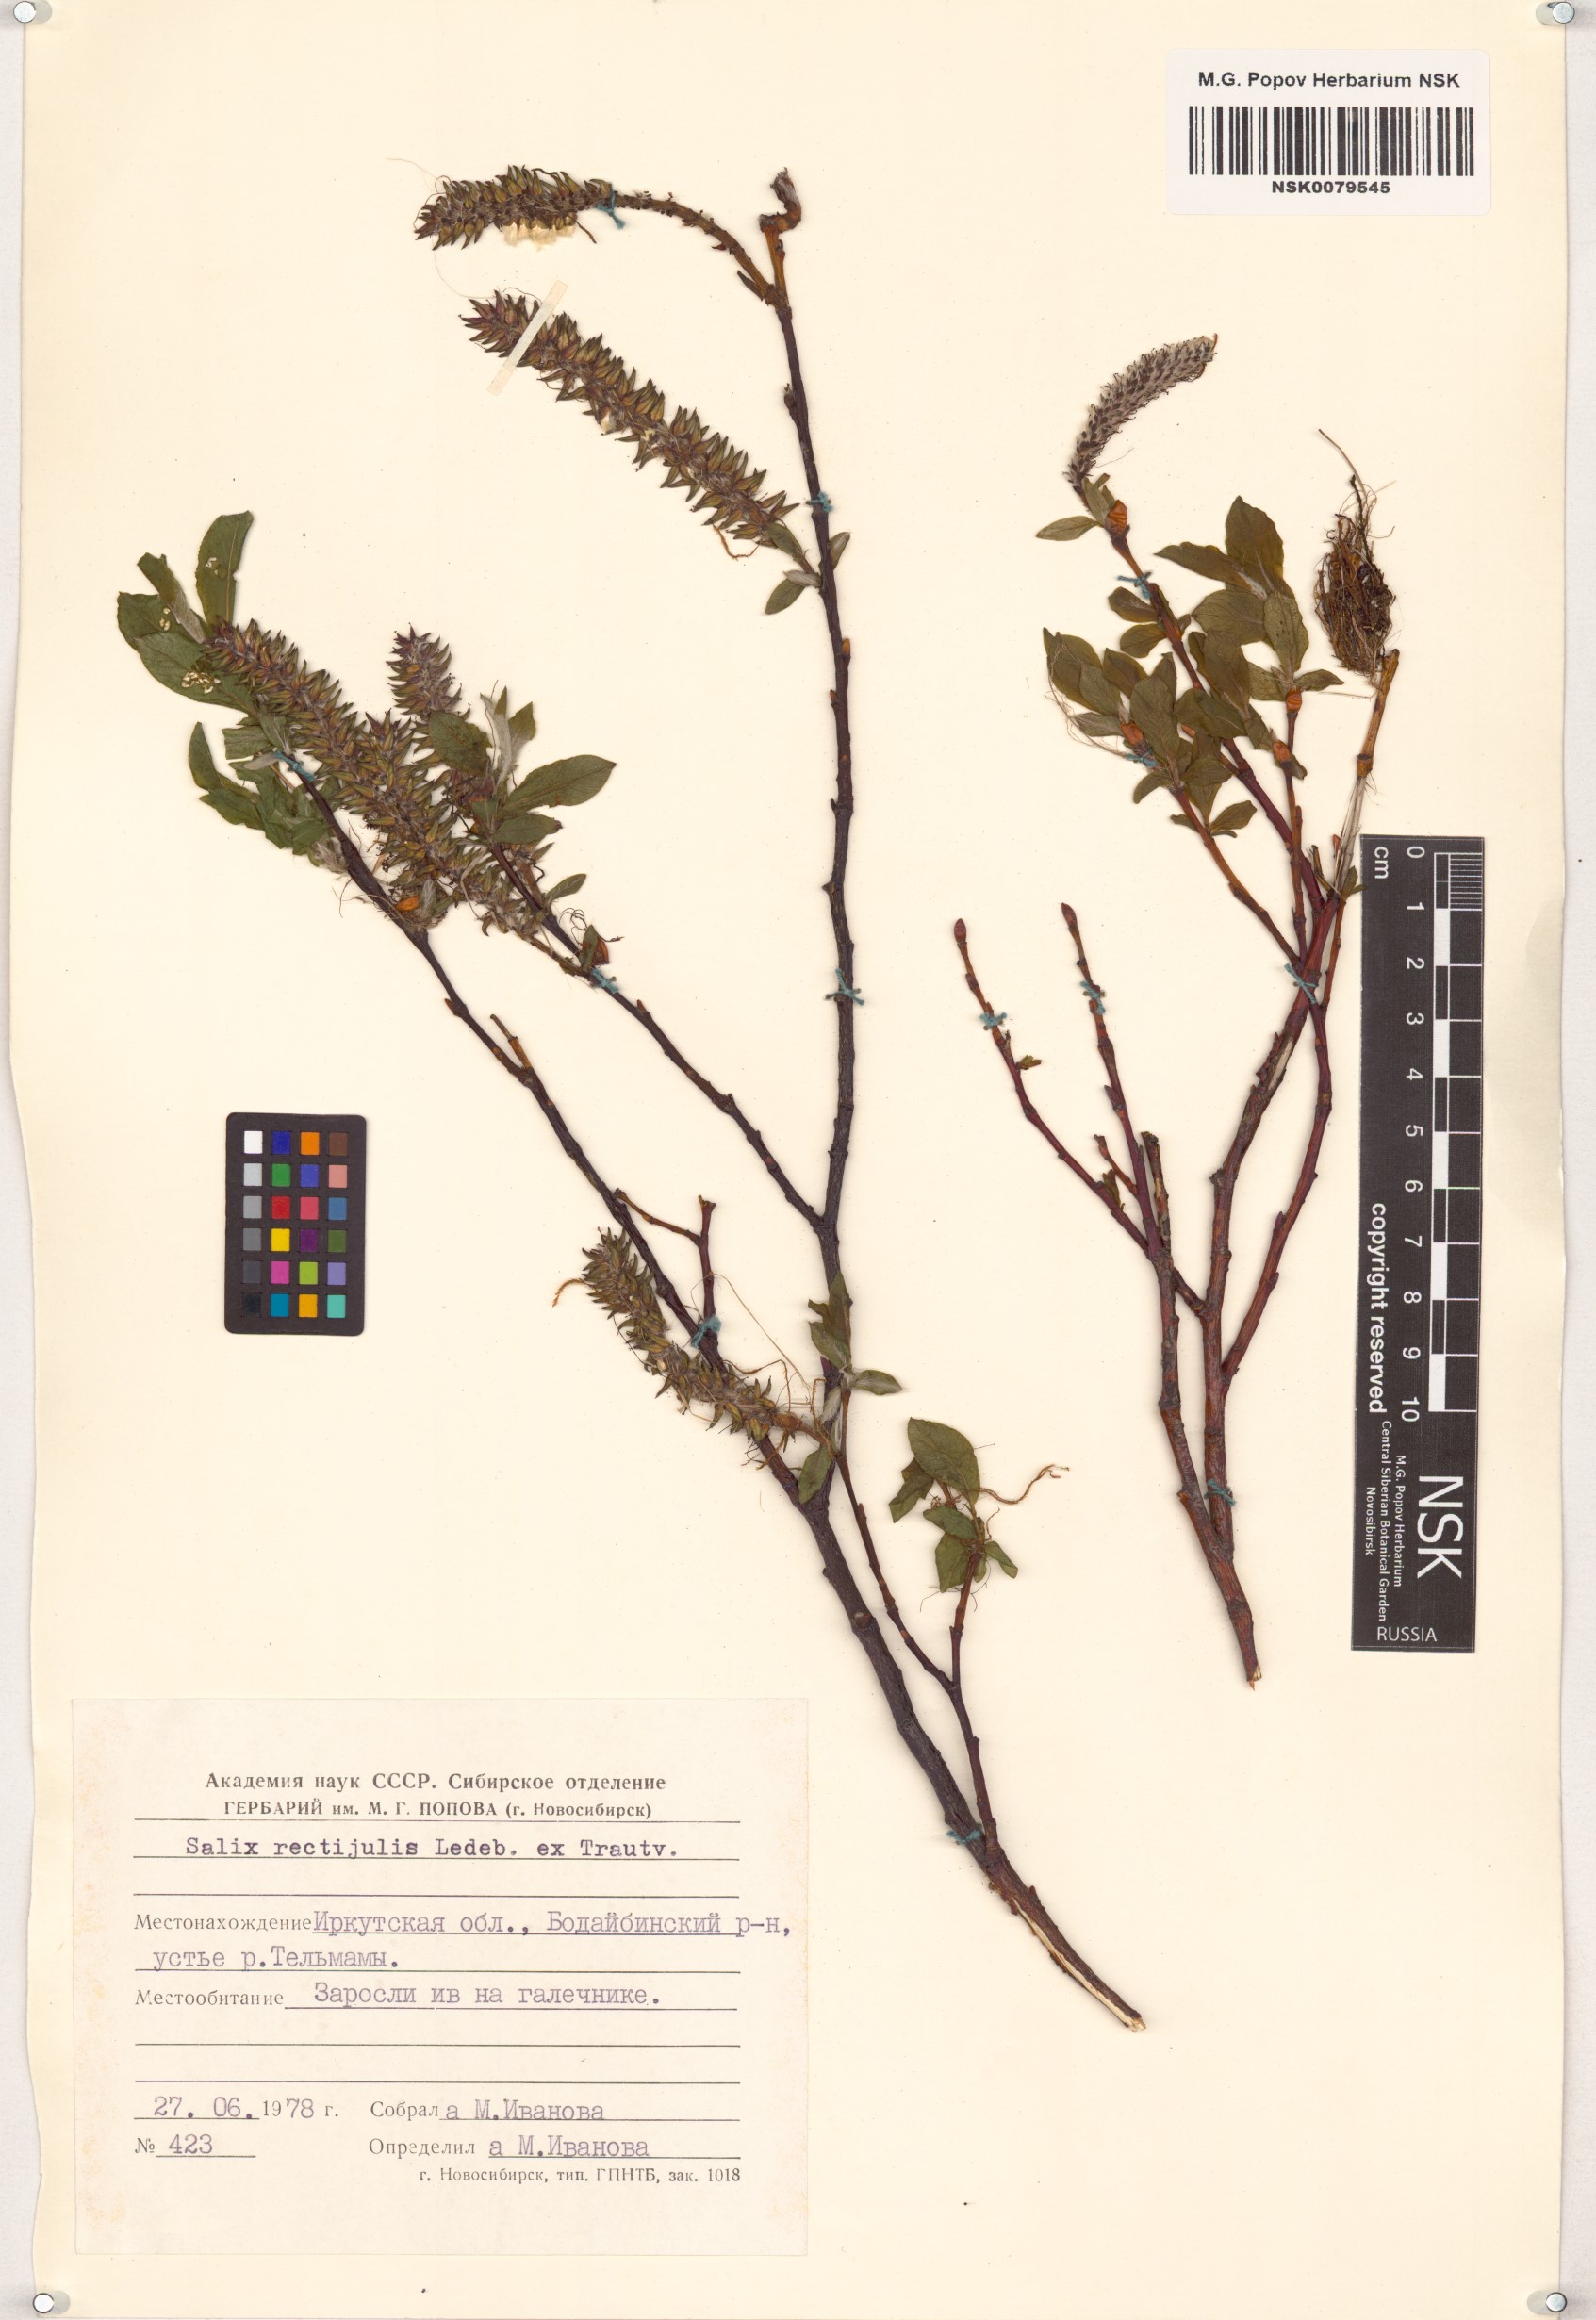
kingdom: Plantae
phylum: Tracheophyta
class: Magnoliopsida
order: Malpighiales
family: Salicaceae
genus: Salix
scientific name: Salix rectijulis
